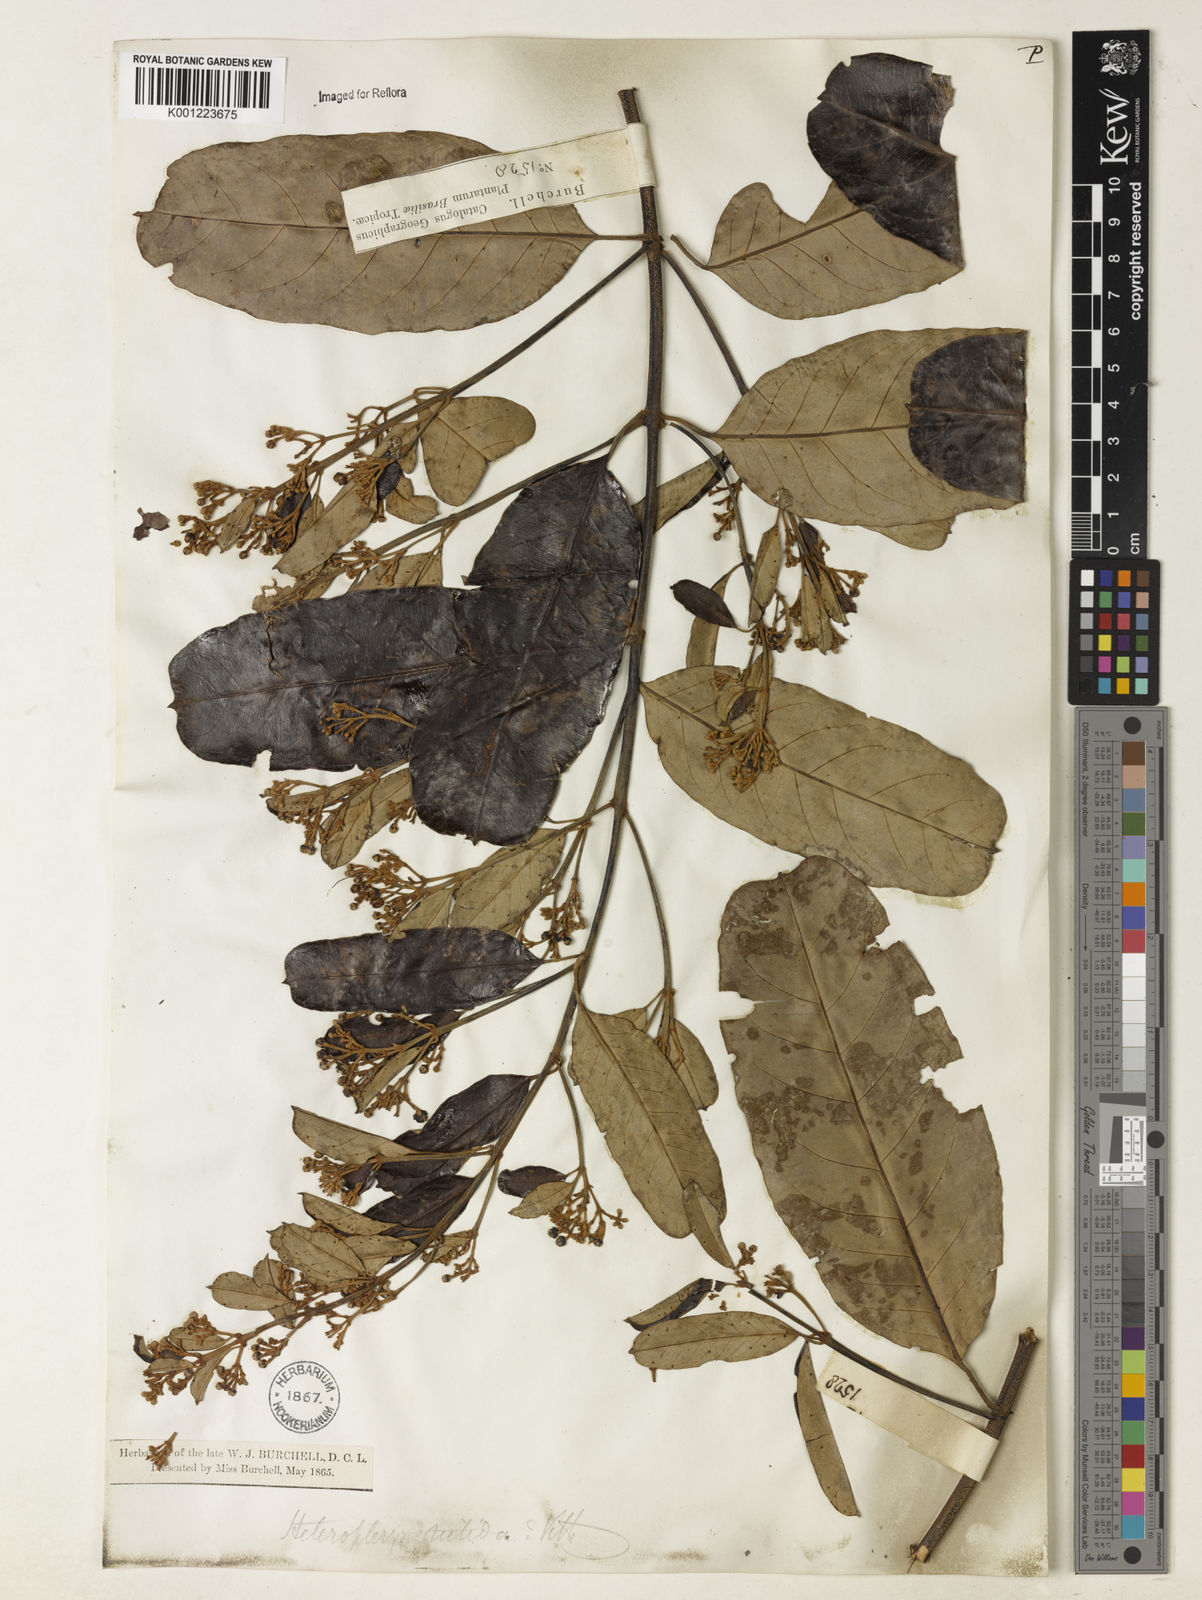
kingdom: Plantae
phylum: Tracheophyta
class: Magnoliopsida
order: Malpighiales
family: Malpighiaceae
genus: Heteropterys
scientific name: Heteropterys nitida
